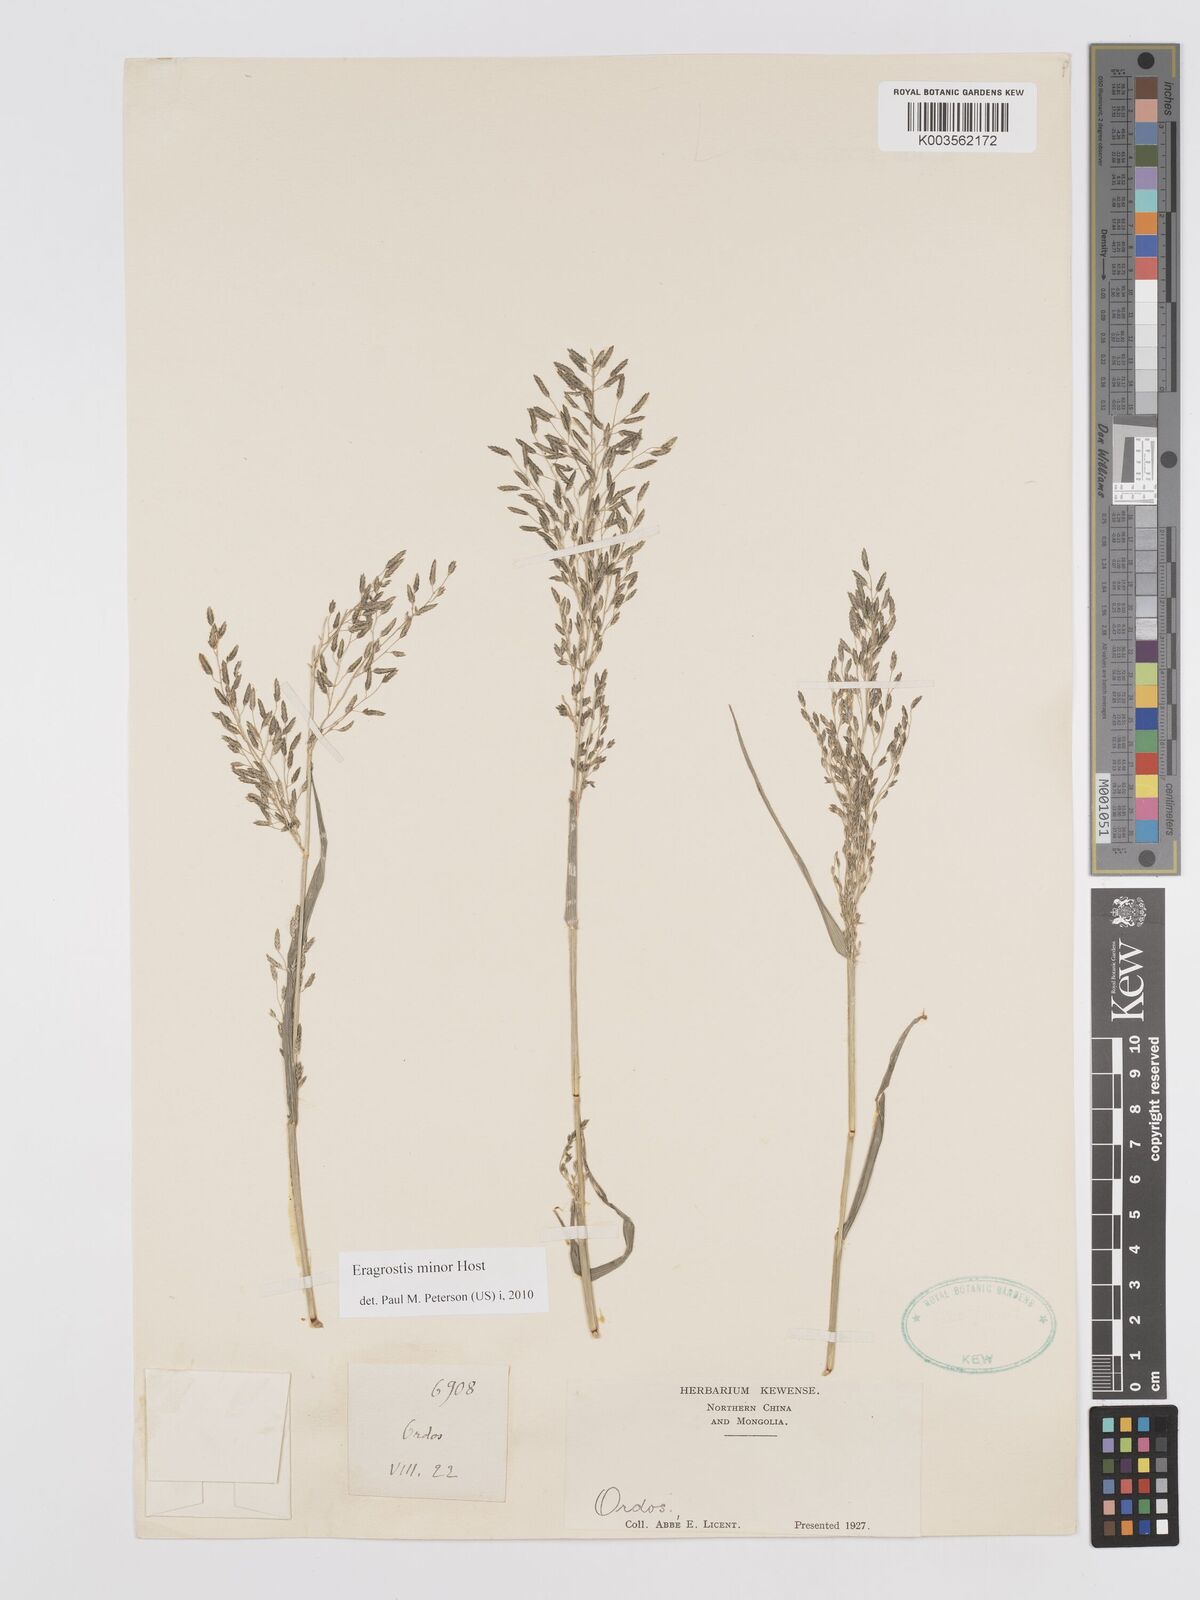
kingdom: Plantae
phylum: Tracheophyta
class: Liliopsida
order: Poales
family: Poaceae
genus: Eragrostis
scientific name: Eragrostis minor
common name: Small love-grass
